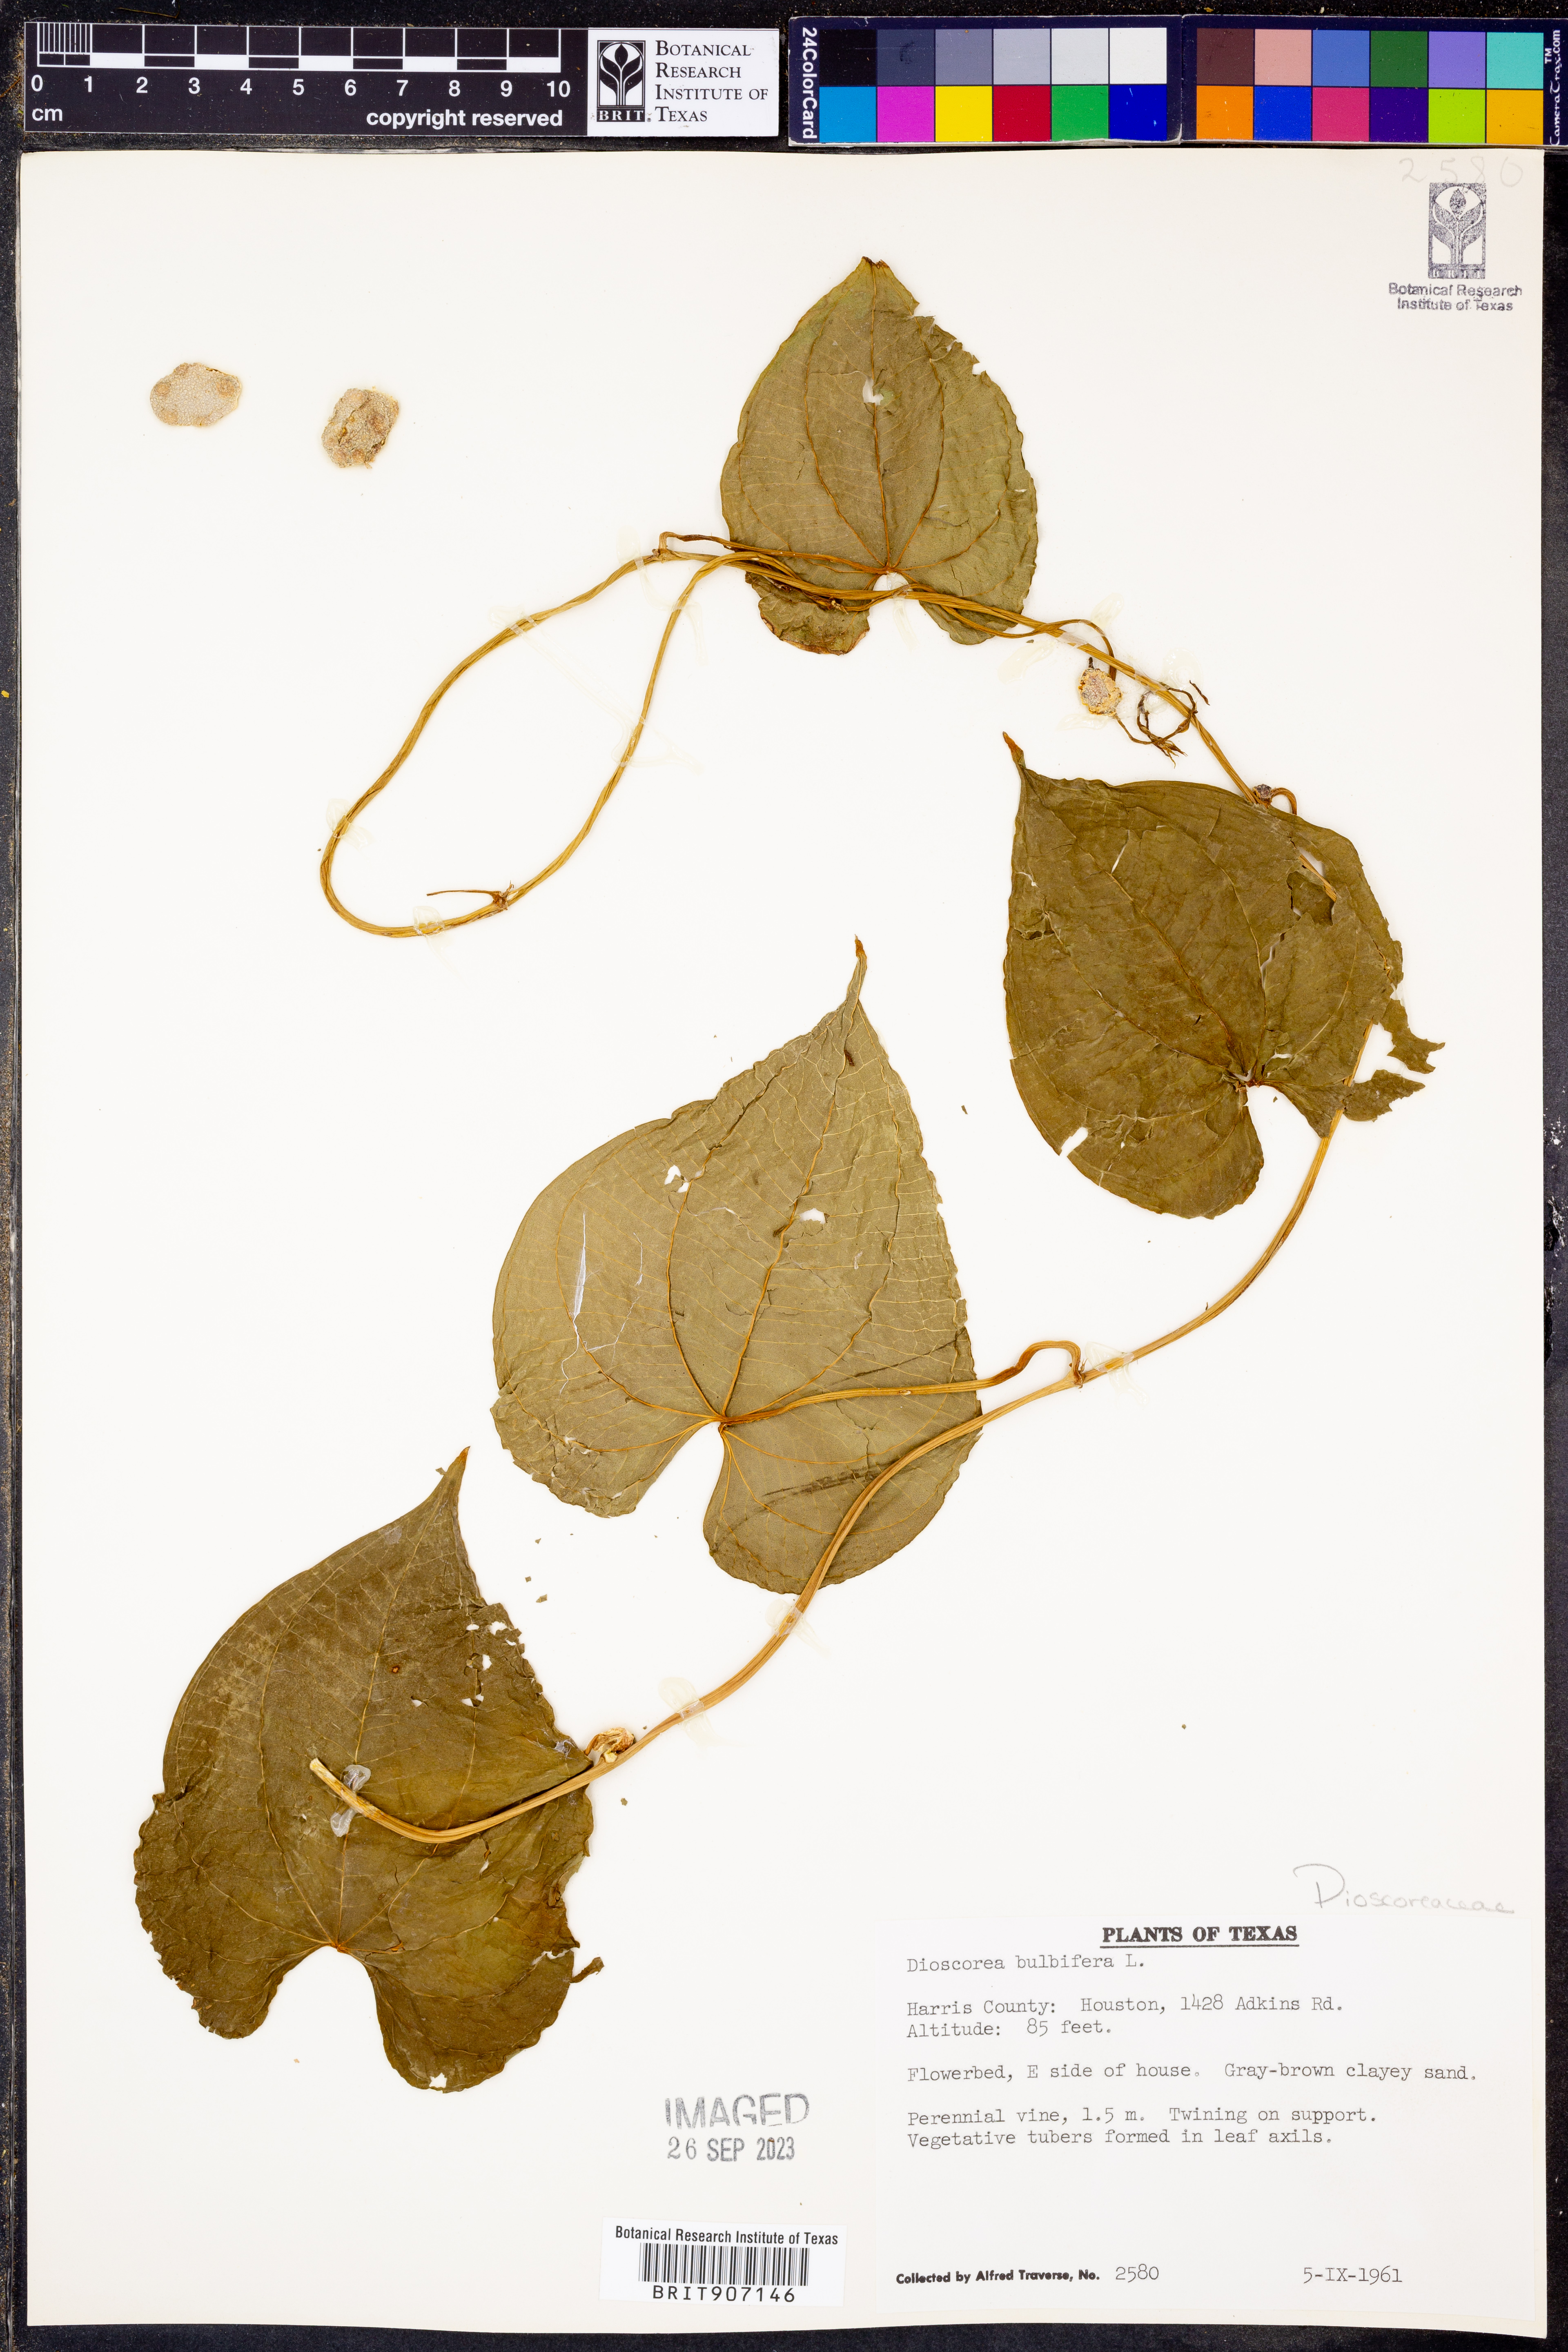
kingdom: Plantae
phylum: Tracheophyta
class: Liliopsida
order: Dioscoreales
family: Dioscoreaceae
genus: Dioscorea
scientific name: Dioscorea bulbifera
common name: Air yam
